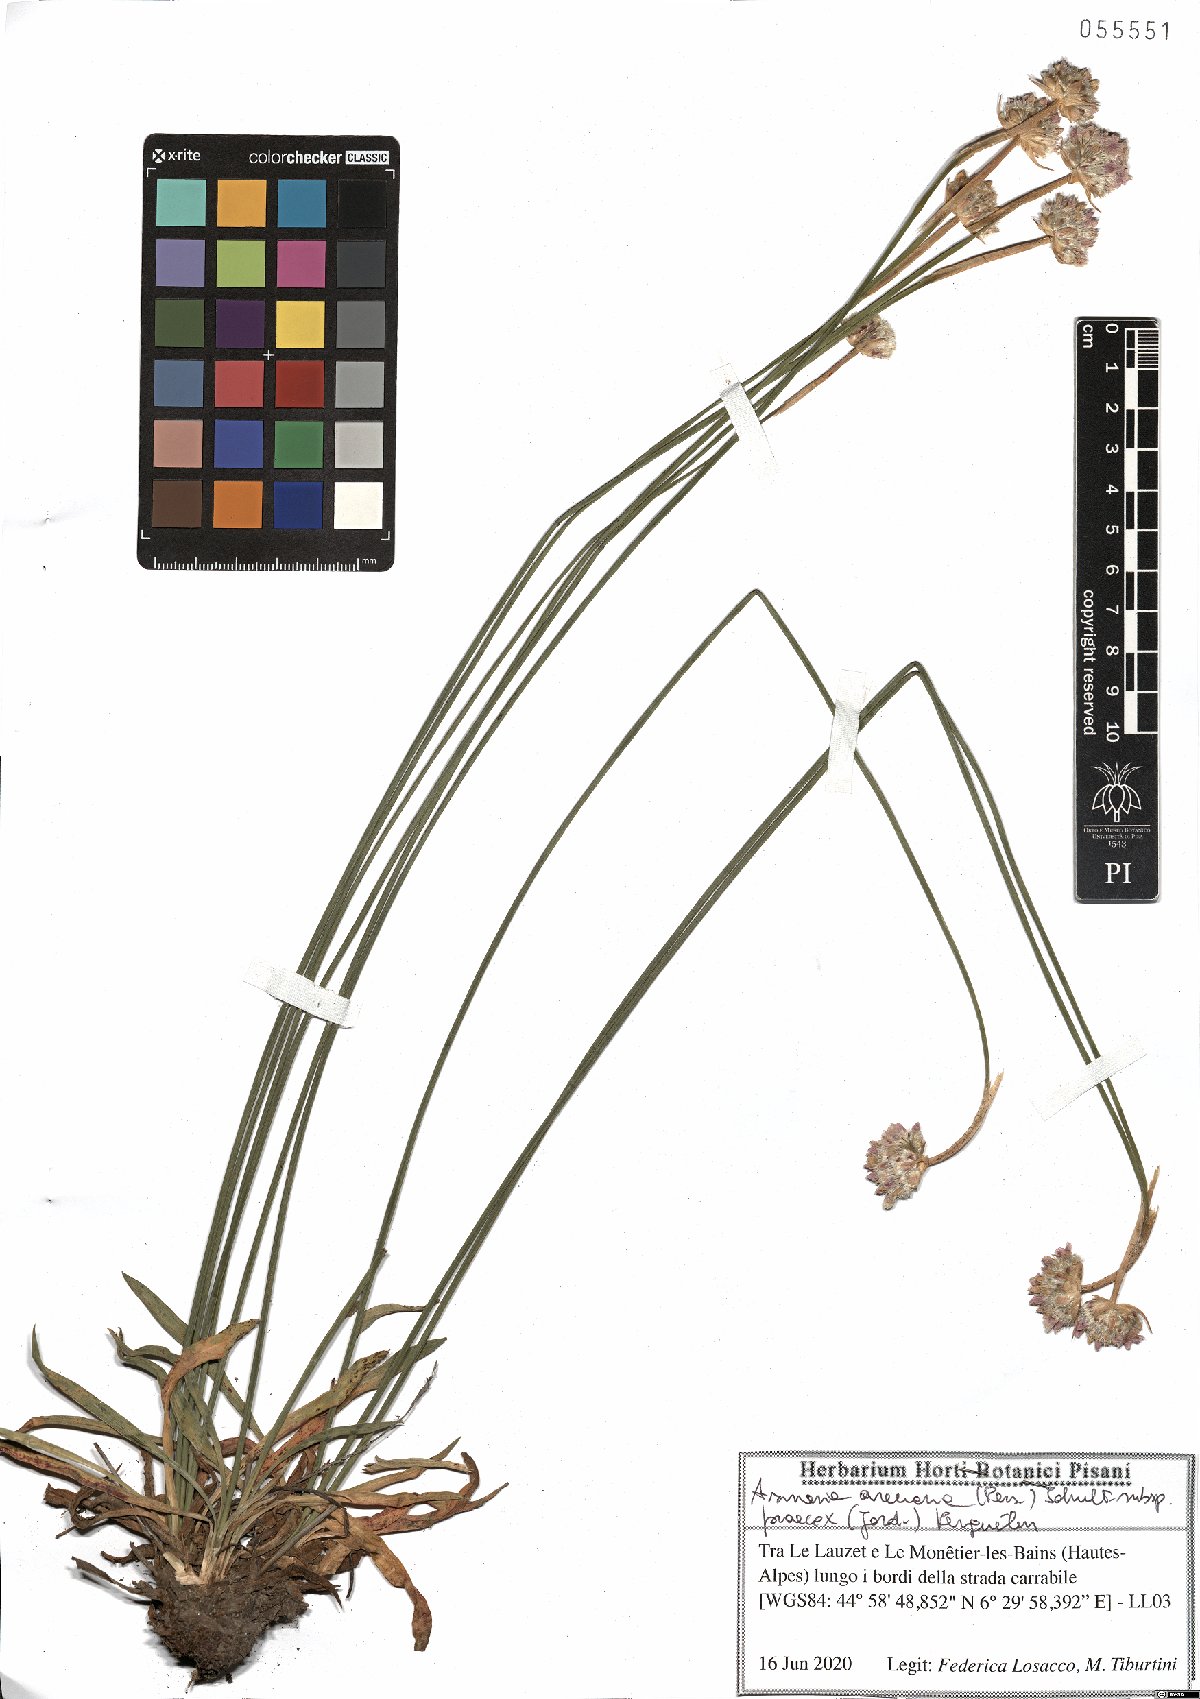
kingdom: Plantae
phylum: Tracheophyta
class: Magnoliopsida
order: Caryophyllales
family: Plumbaginaceae
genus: Armeria
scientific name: Armeria arenaria
